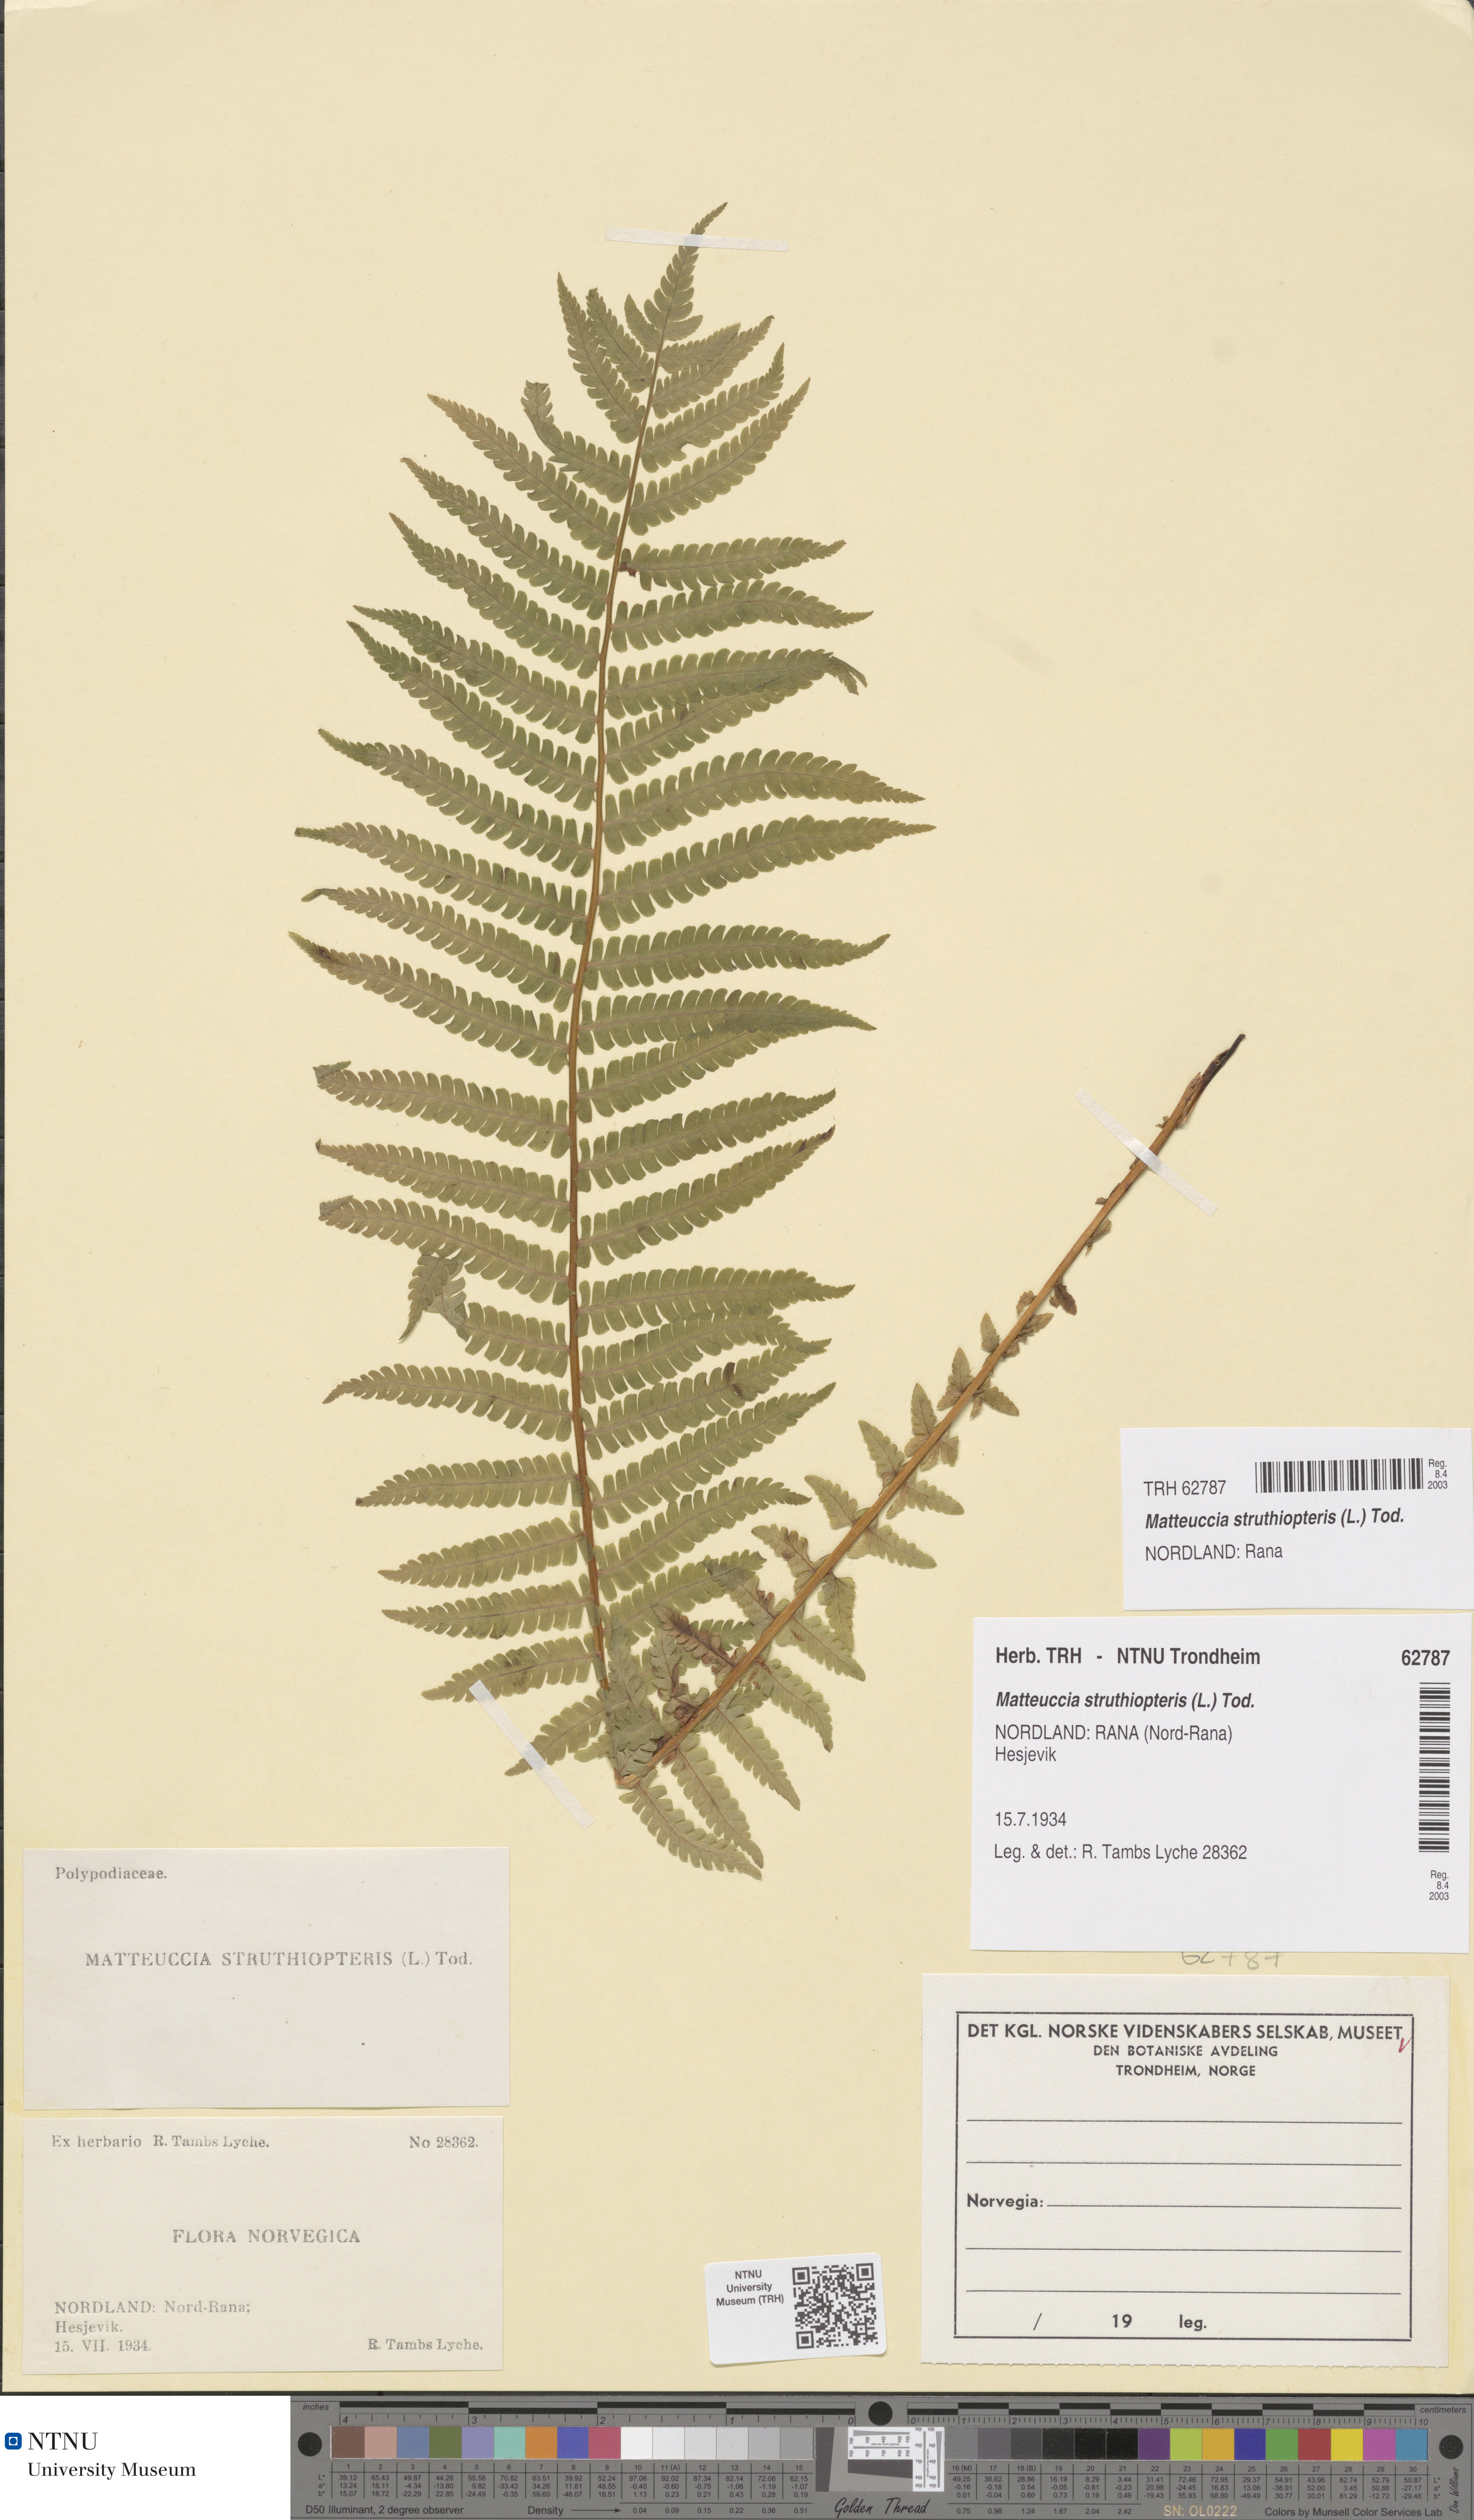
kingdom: Plantae
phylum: Tracheophyta
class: Polypodiopsida
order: Polypodiales
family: Onocleaceae
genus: Matteuccia
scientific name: Matteuccia struthiopteris
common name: Ostrich fern
